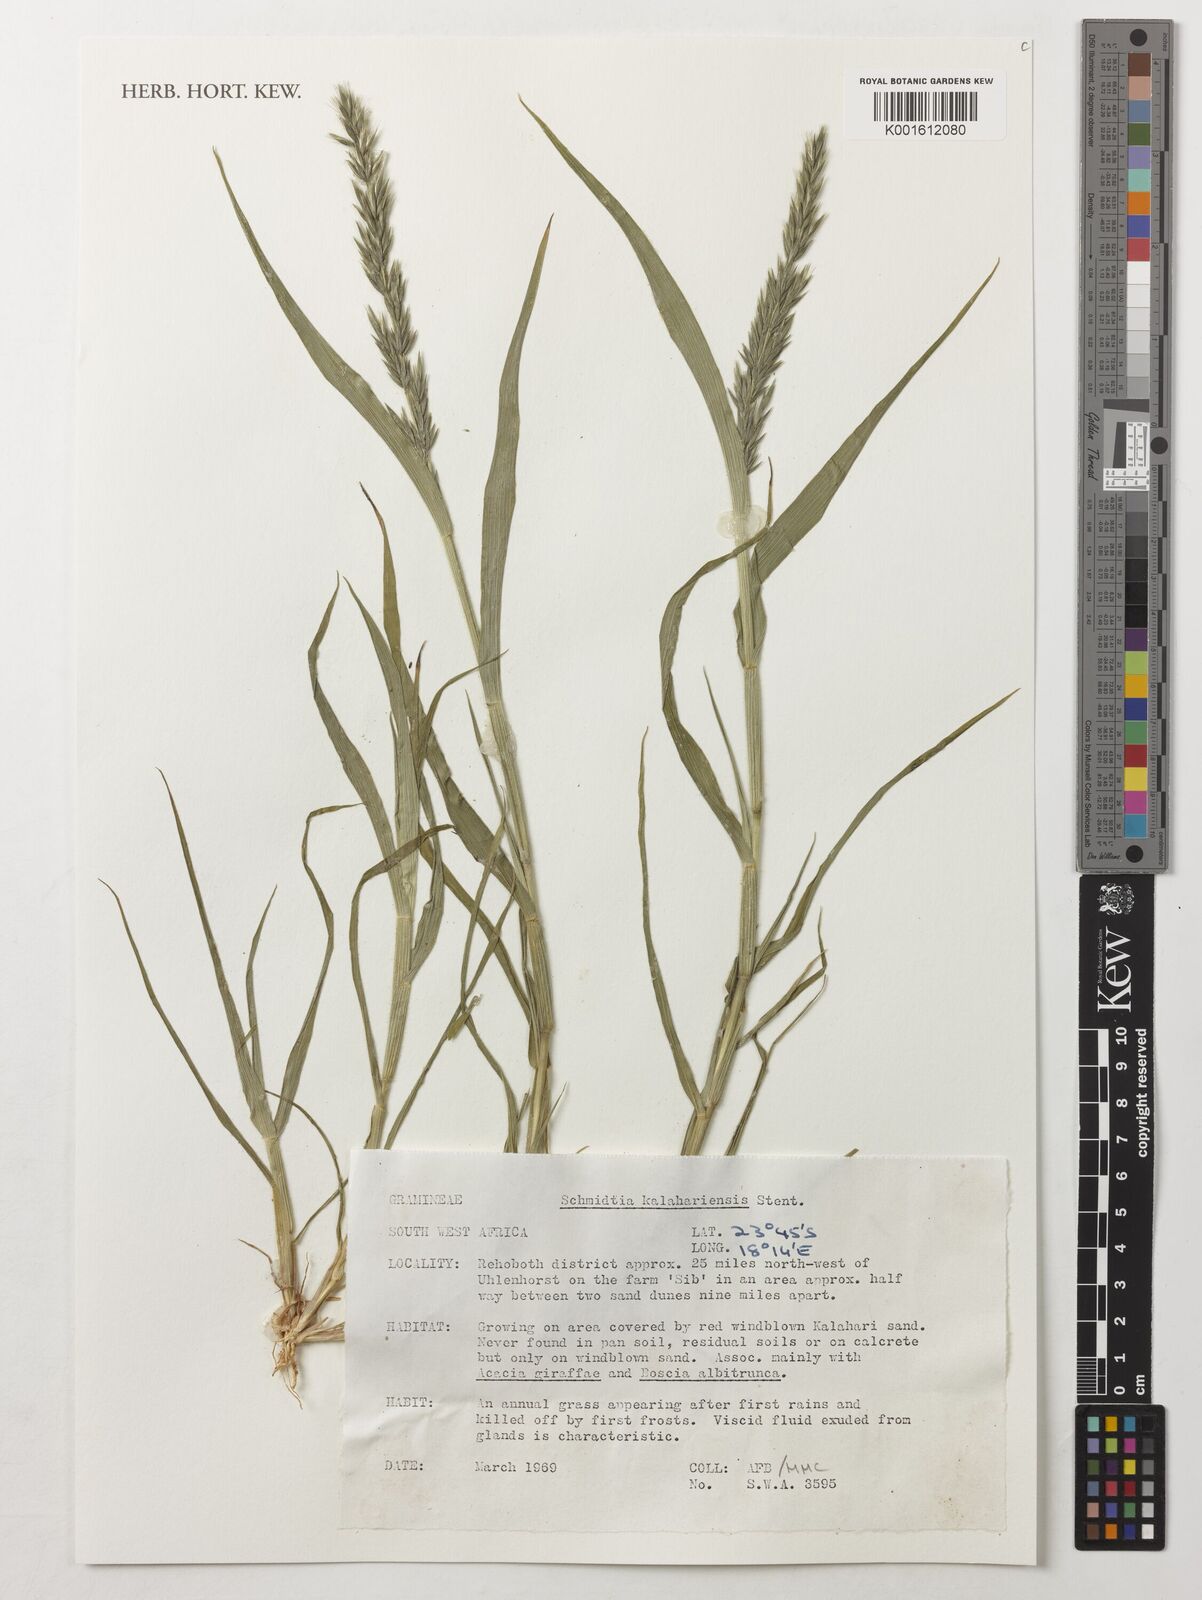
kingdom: Plantae
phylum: Tracheophyta
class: Liliopsida
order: Poales
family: Poaceae
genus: Schmidtia
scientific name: Schmidtia kalahariensis
